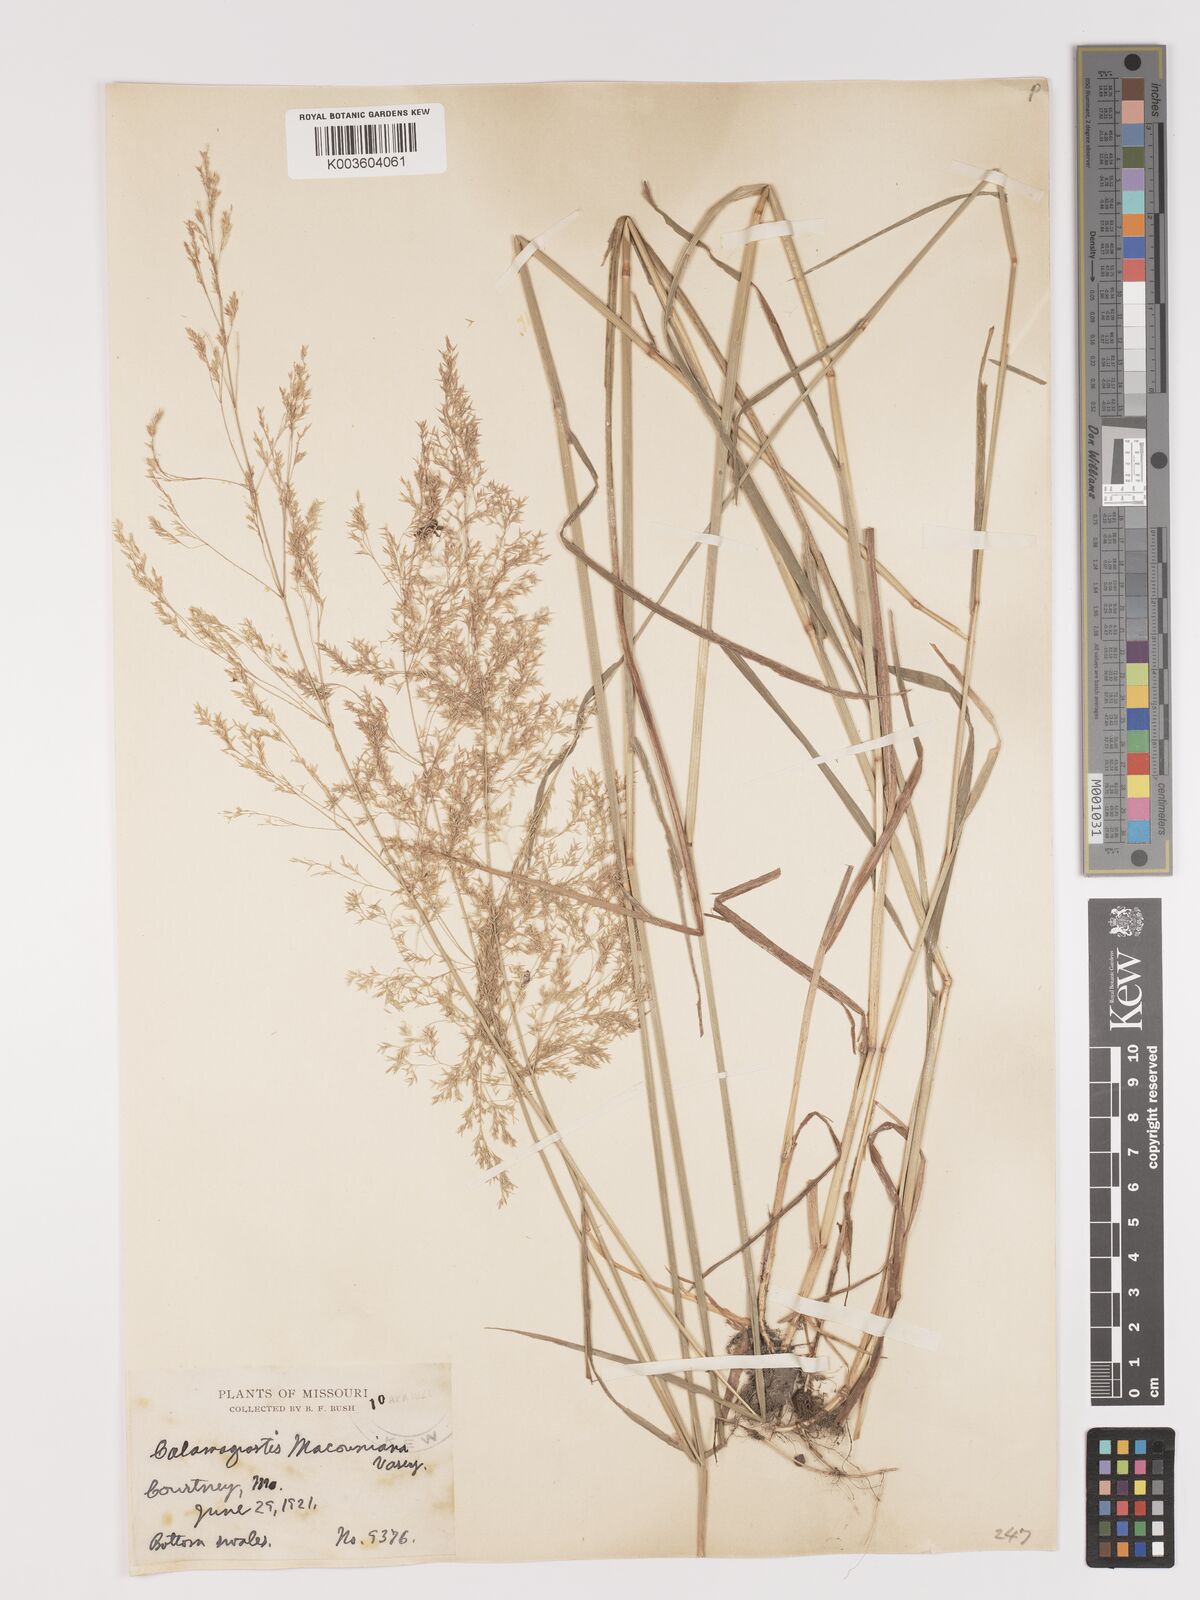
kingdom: Plantae
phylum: Tracheophyta
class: Liliopsida
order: Poales
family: Poaceae
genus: Agrostis
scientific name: Agrostis gigantea
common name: Black bent
